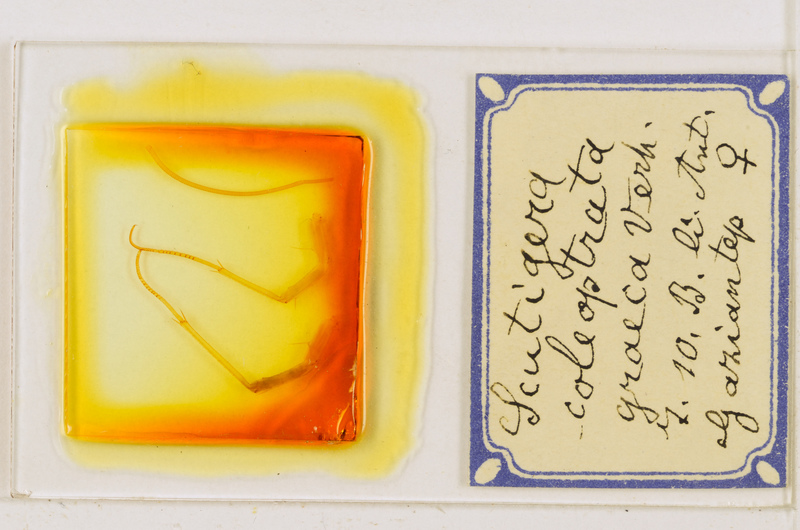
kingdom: Animalia
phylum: Arthropoda
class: Chilopoda
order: Scutigeromorpha
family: Scutigeridae
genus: Scutigera
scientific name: Scutigera coleoptrata
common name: House centipede
